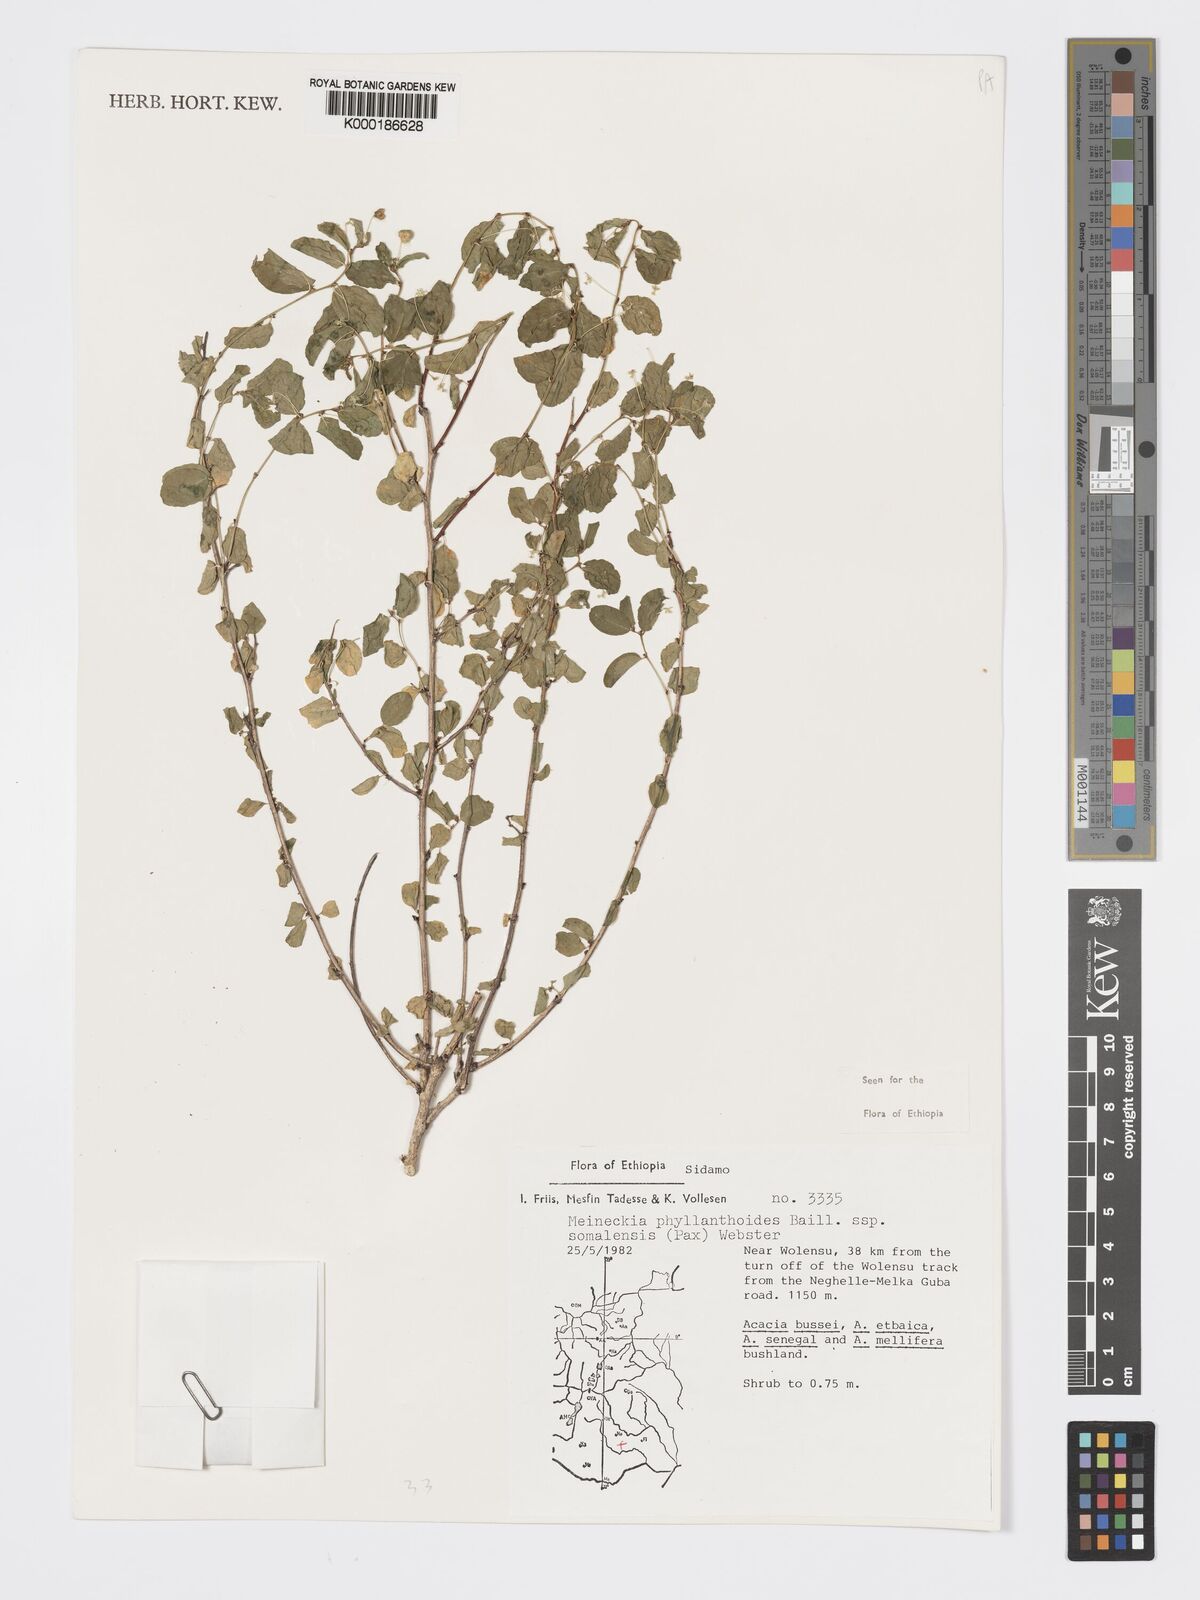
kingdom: Plantae
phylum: Tracheophyta
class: Magnoliopsida
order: Malpighiales
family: Phyllanthaceae
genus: Meineckia
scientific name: Meineckia phyllanthoides
